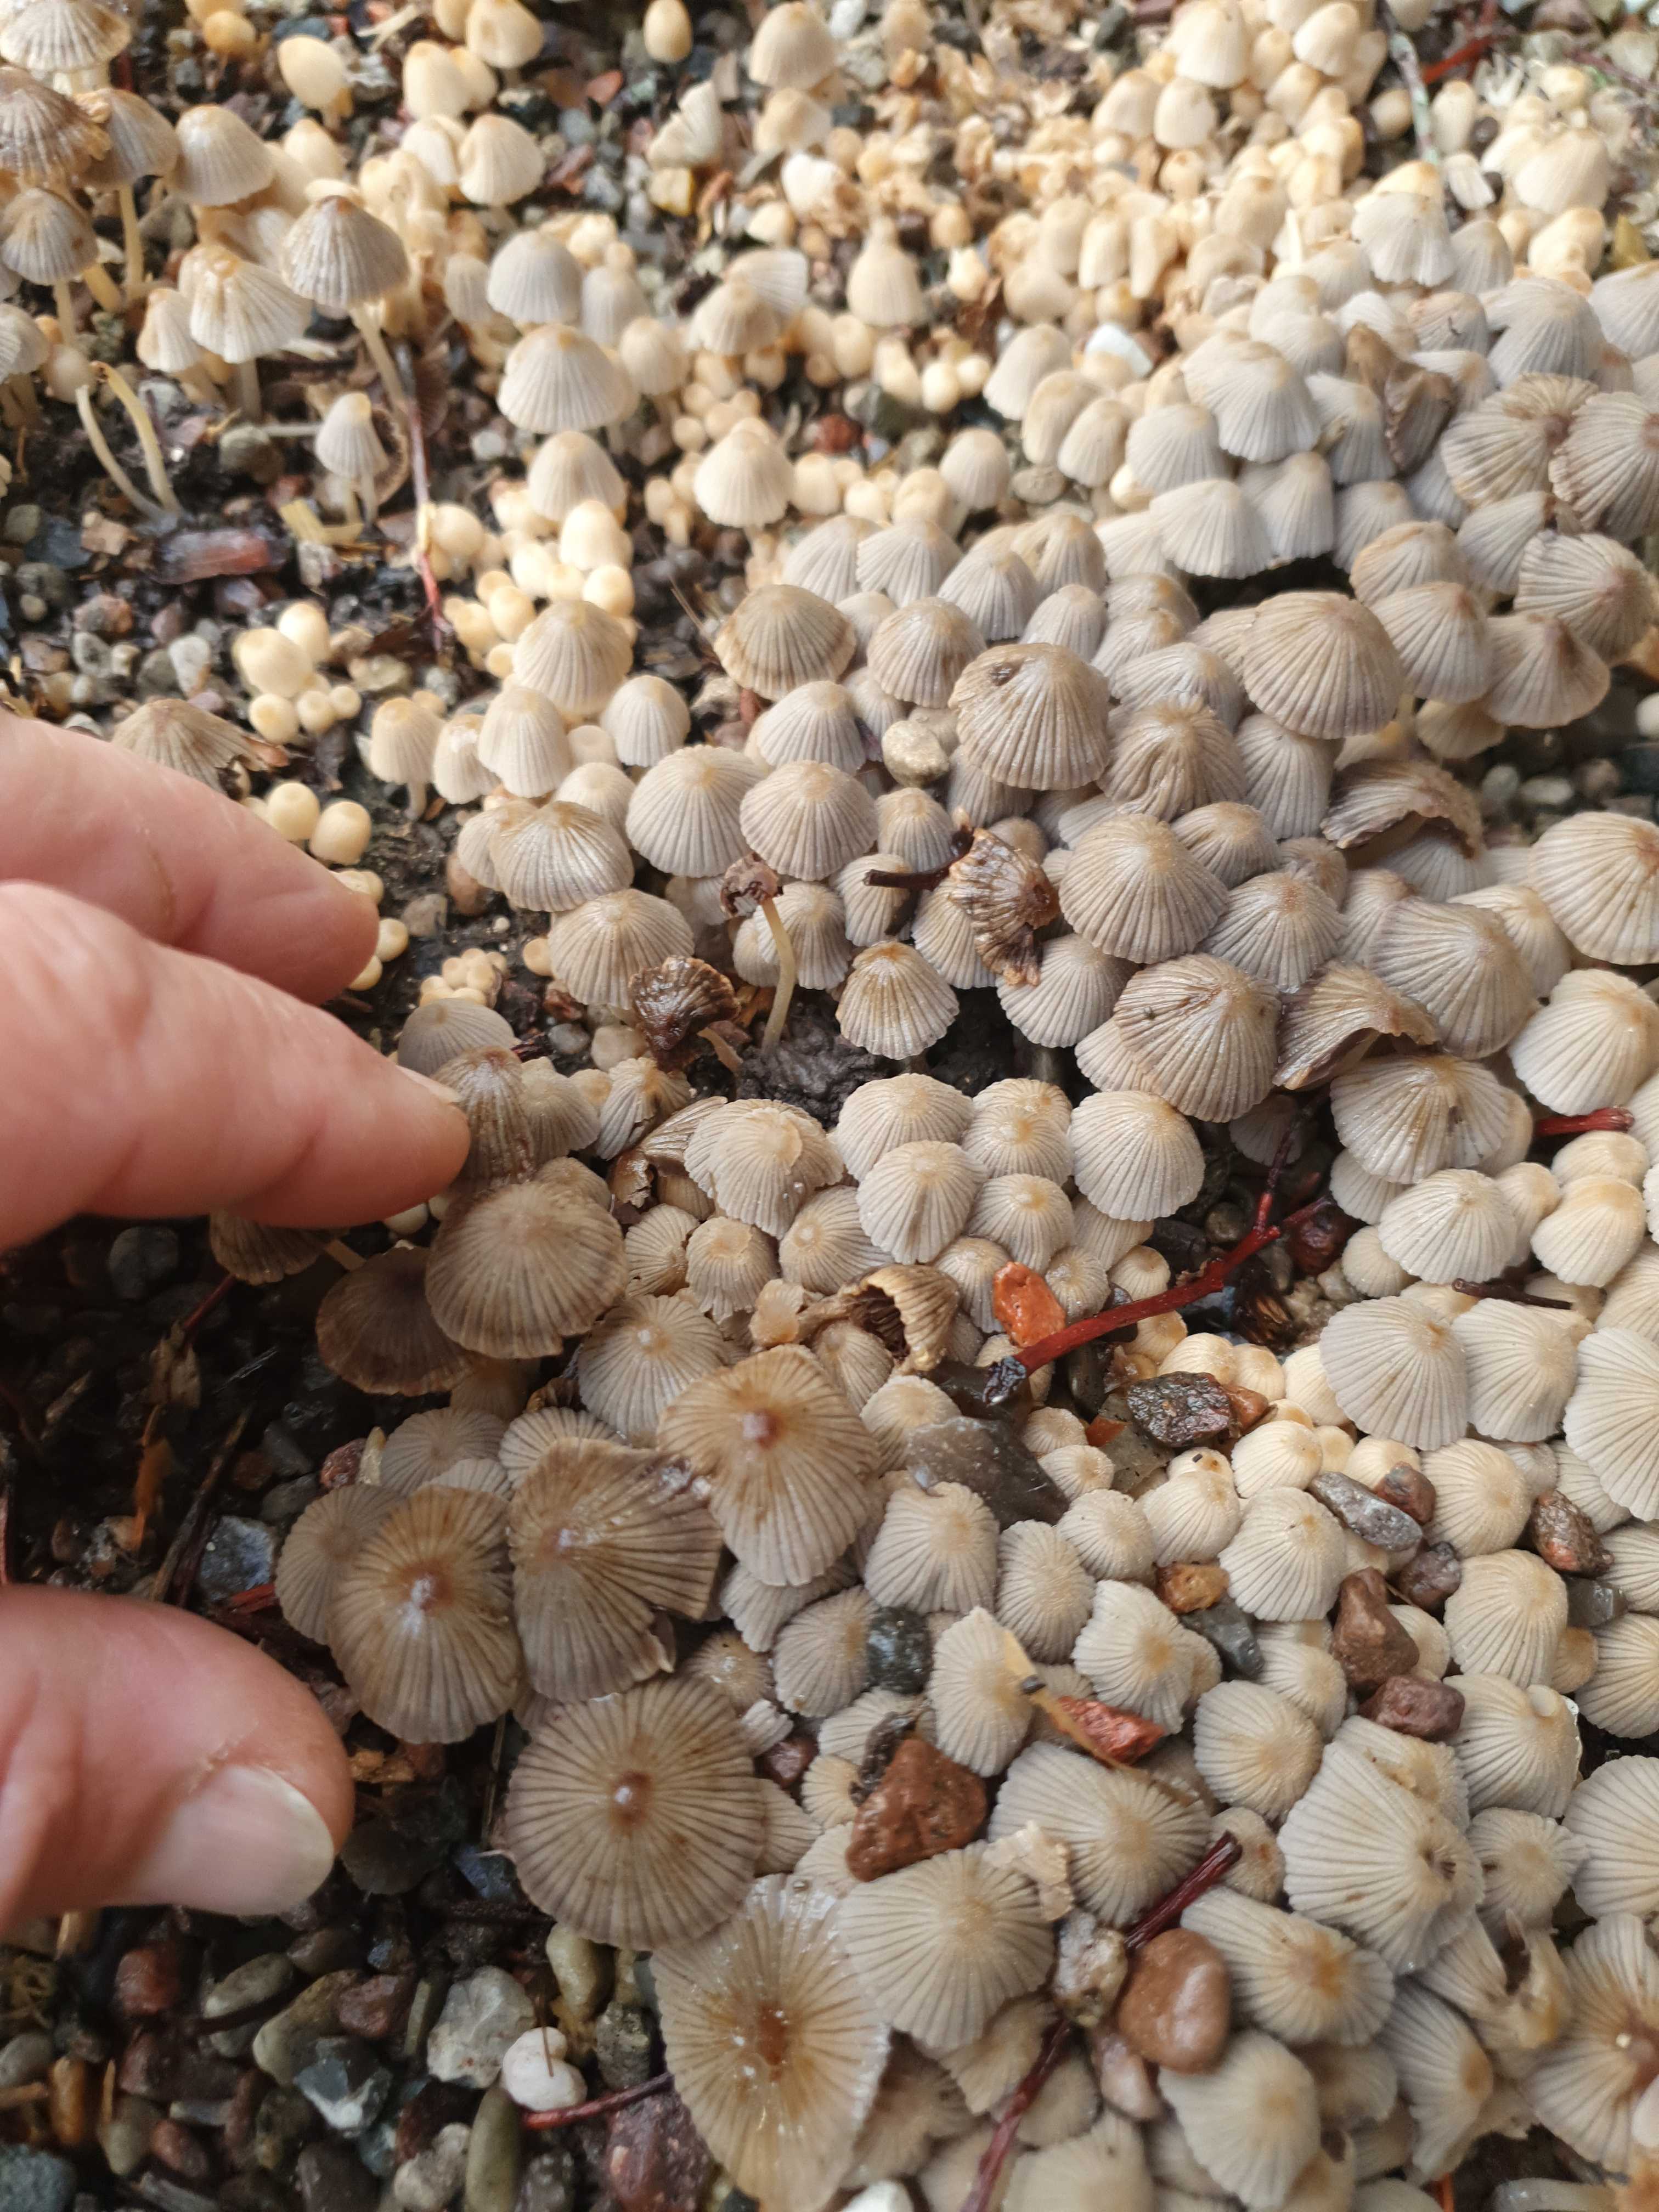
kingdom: Fungi
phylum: Basidiomycota
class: Agaricomycetes
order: Agaricales
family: Psathyrellaceae
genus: Coprinellus
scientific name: Coprinellus disseminatus
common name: bredsået blækhat
